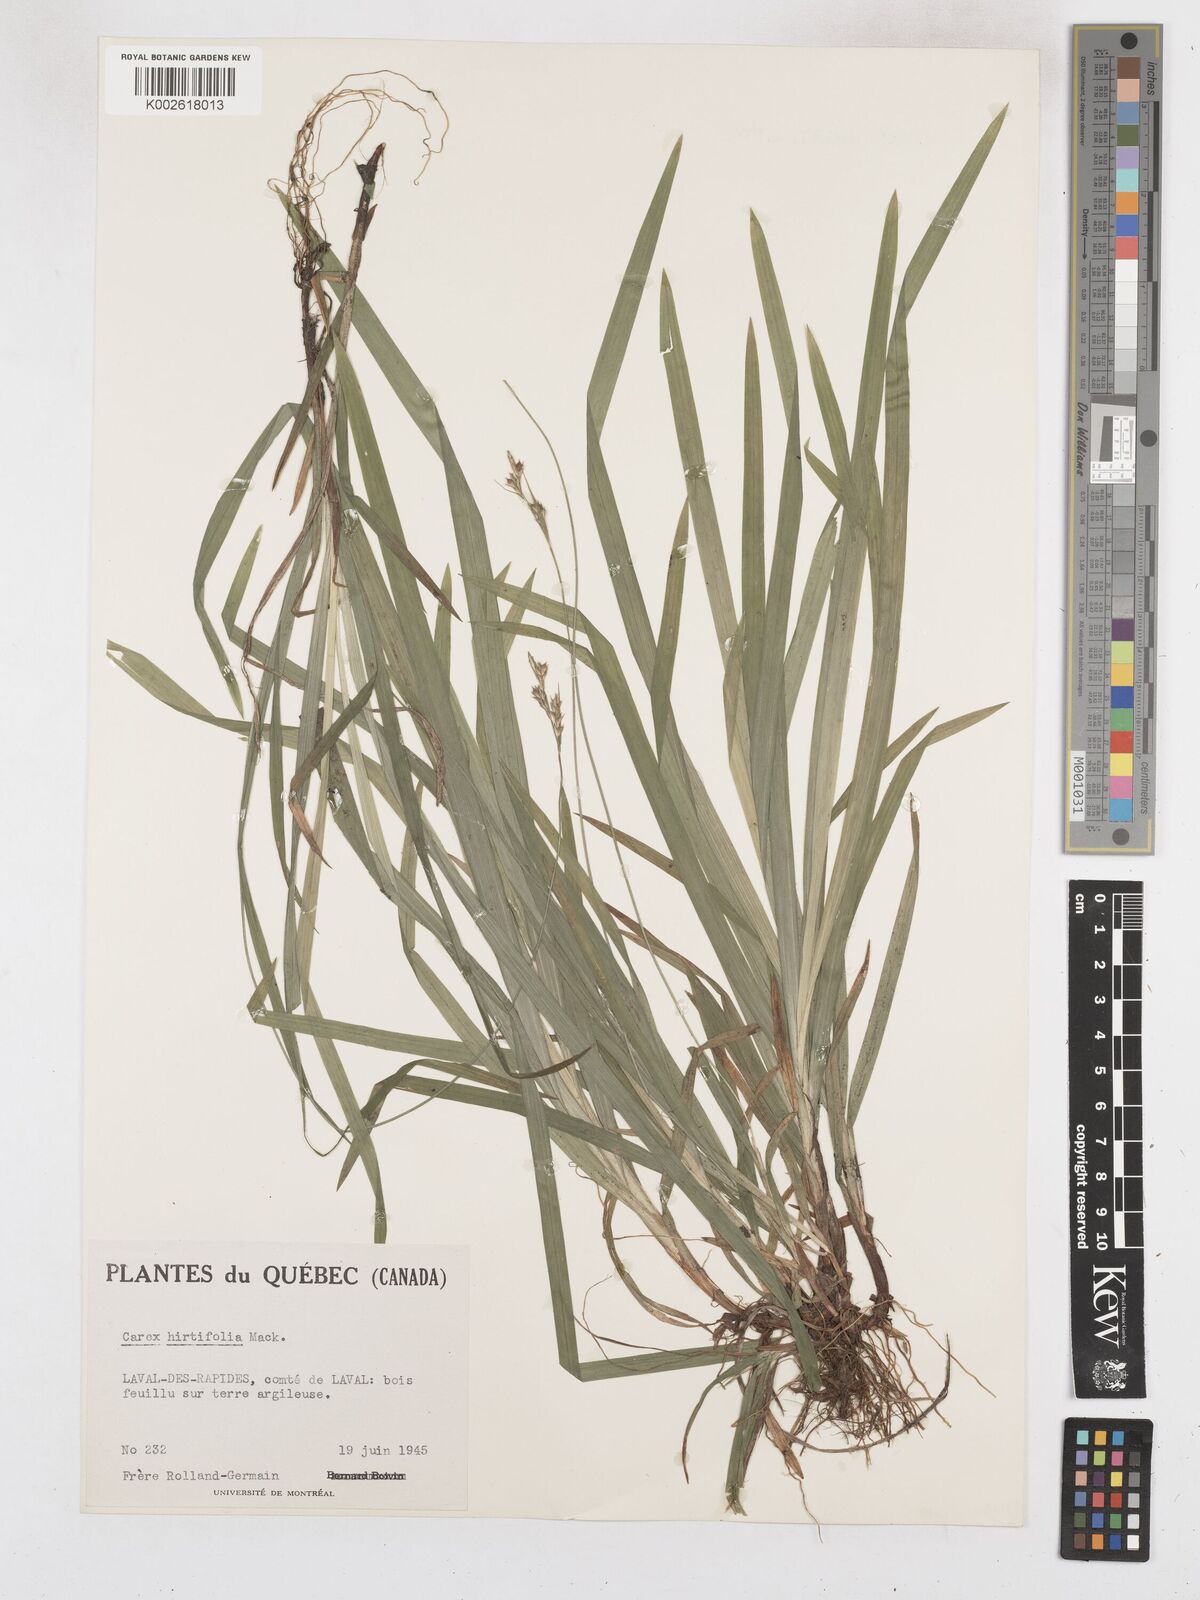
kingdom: Plantae
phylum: Tracheophyta
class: Liliopsida
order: Poales
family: Cyperaceae
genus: Carex
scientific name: Carex hirtifolia
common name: Hairy sedge
